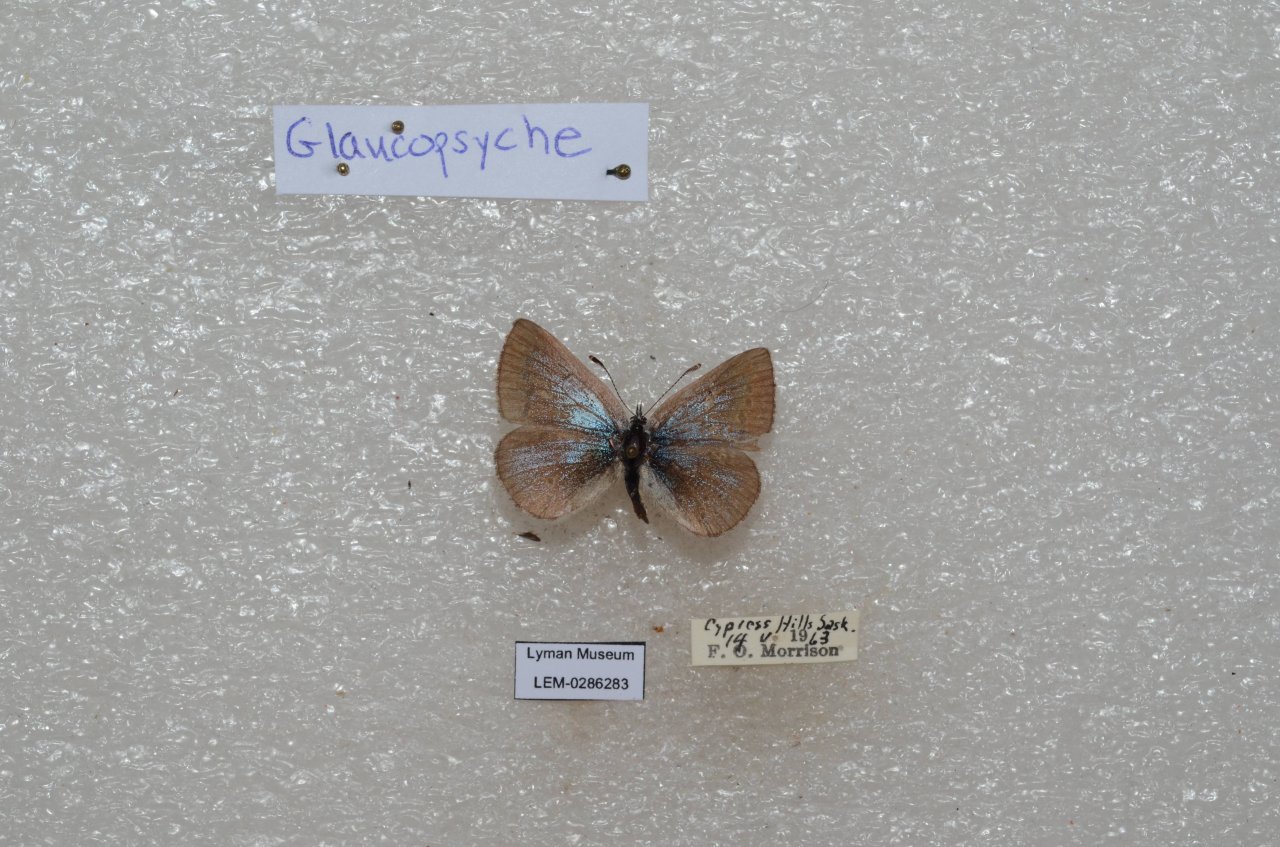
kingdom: Animalia
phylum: Arthropoda
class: Insecta
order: Lepidoptera
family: Lycaenidae
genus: Glaucopsyche
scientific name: Glaucopsyche lygdamus
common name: Silvery Blue
